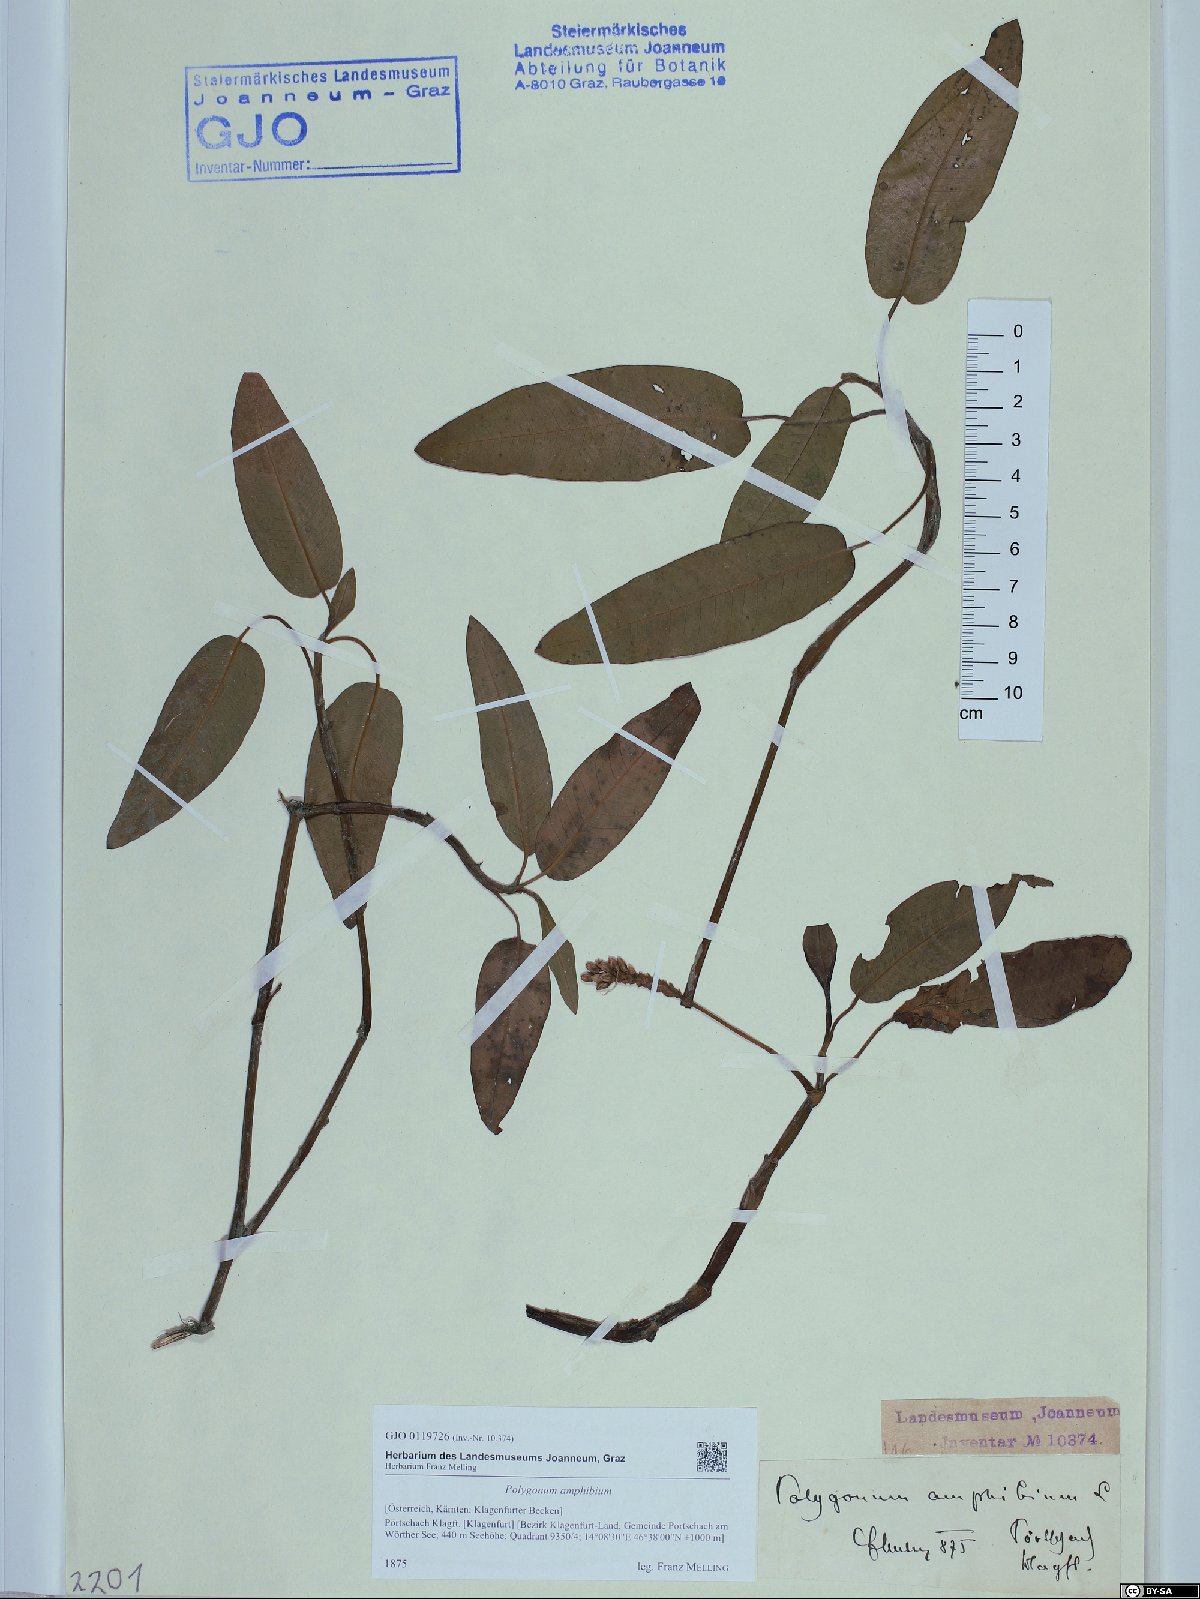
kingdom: Plantae
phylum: Tracheophyta
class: Magnoliopsida
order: Caryophyllales
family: Polygonaceae
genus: Persicaria
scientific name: Persicaria amphibia
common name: Amphibious bistort
